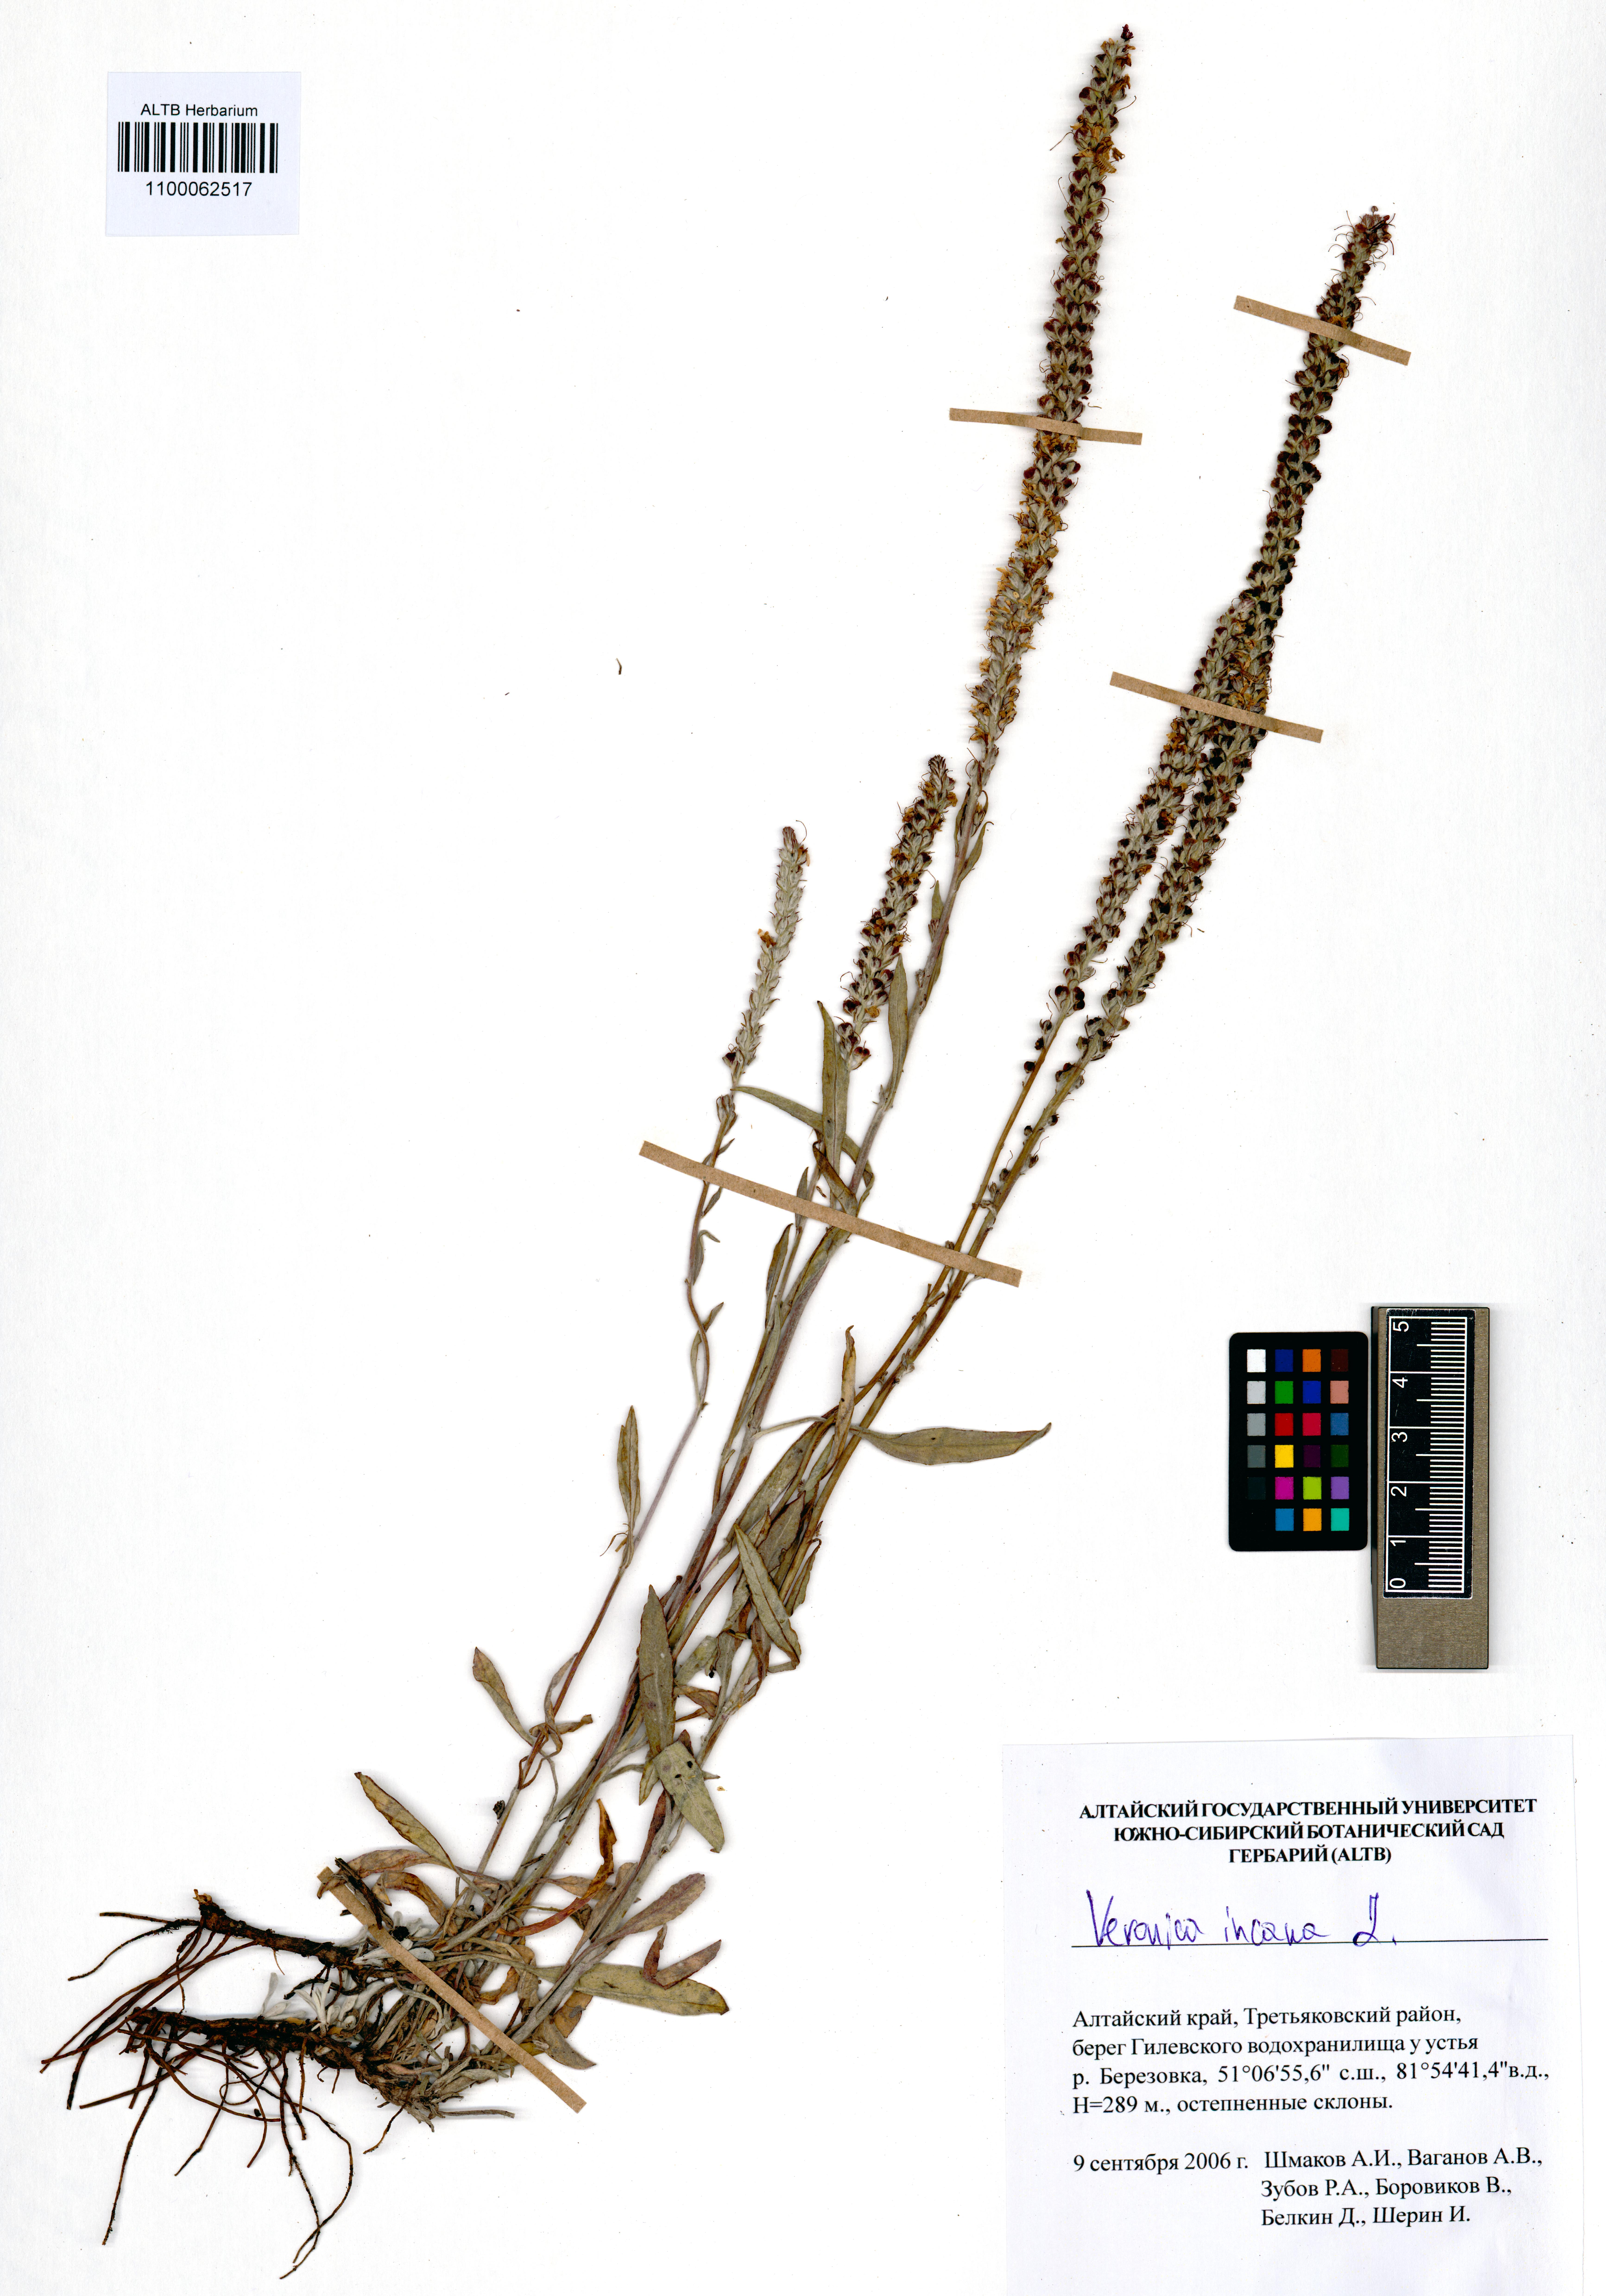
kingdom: Plantae
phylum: Tracheophyta
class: Magnoliopsida
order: Lamiales
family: Plantaginaceae
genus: Veronica
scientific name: Veronica incana
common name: Silver speedwell
